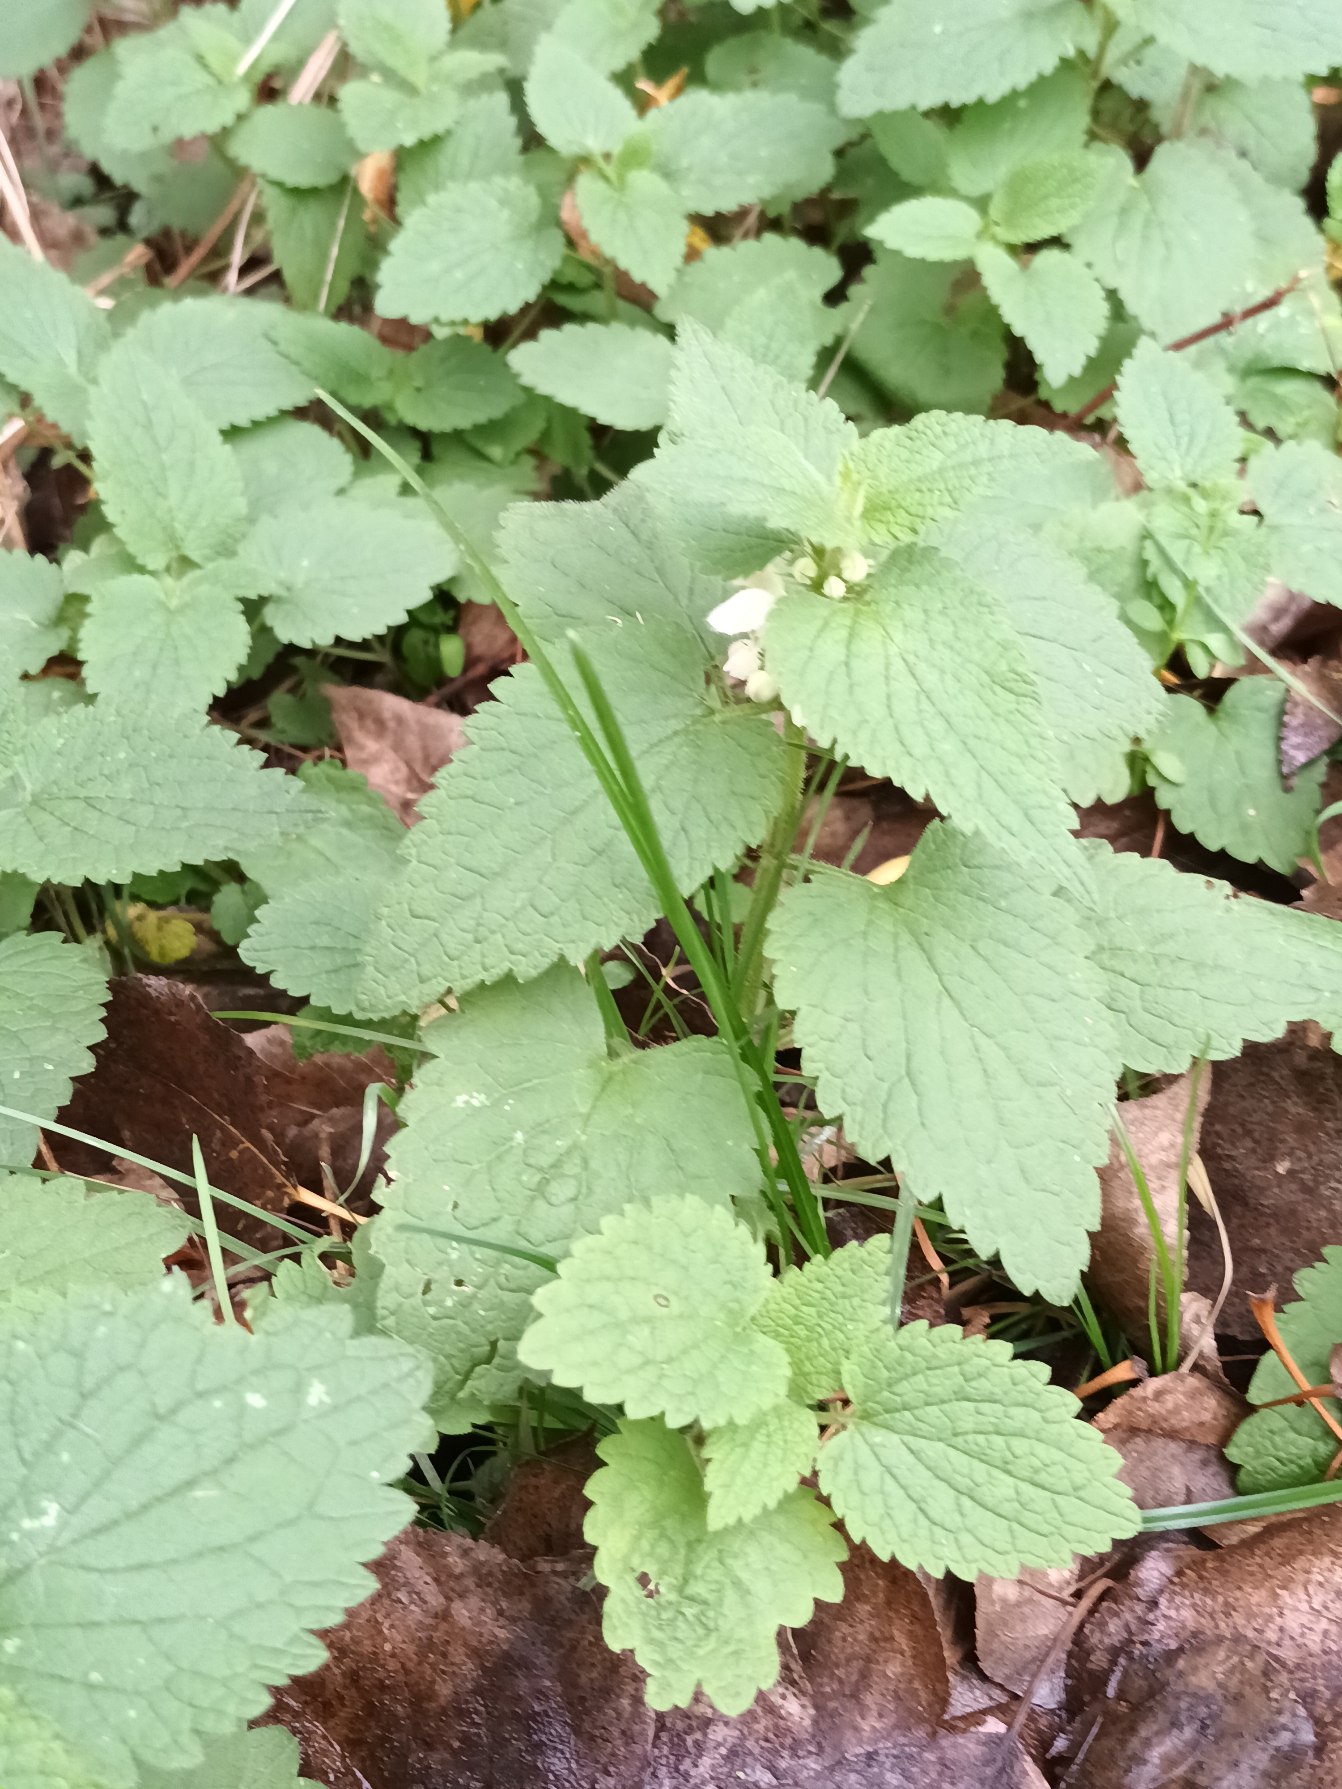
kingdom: Plantae
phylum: Tracheophyta
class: Magnoliopsida
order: Lamiales
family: Lamiaceae
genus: Lamium
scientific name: Lamium album
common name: Døvnælde
